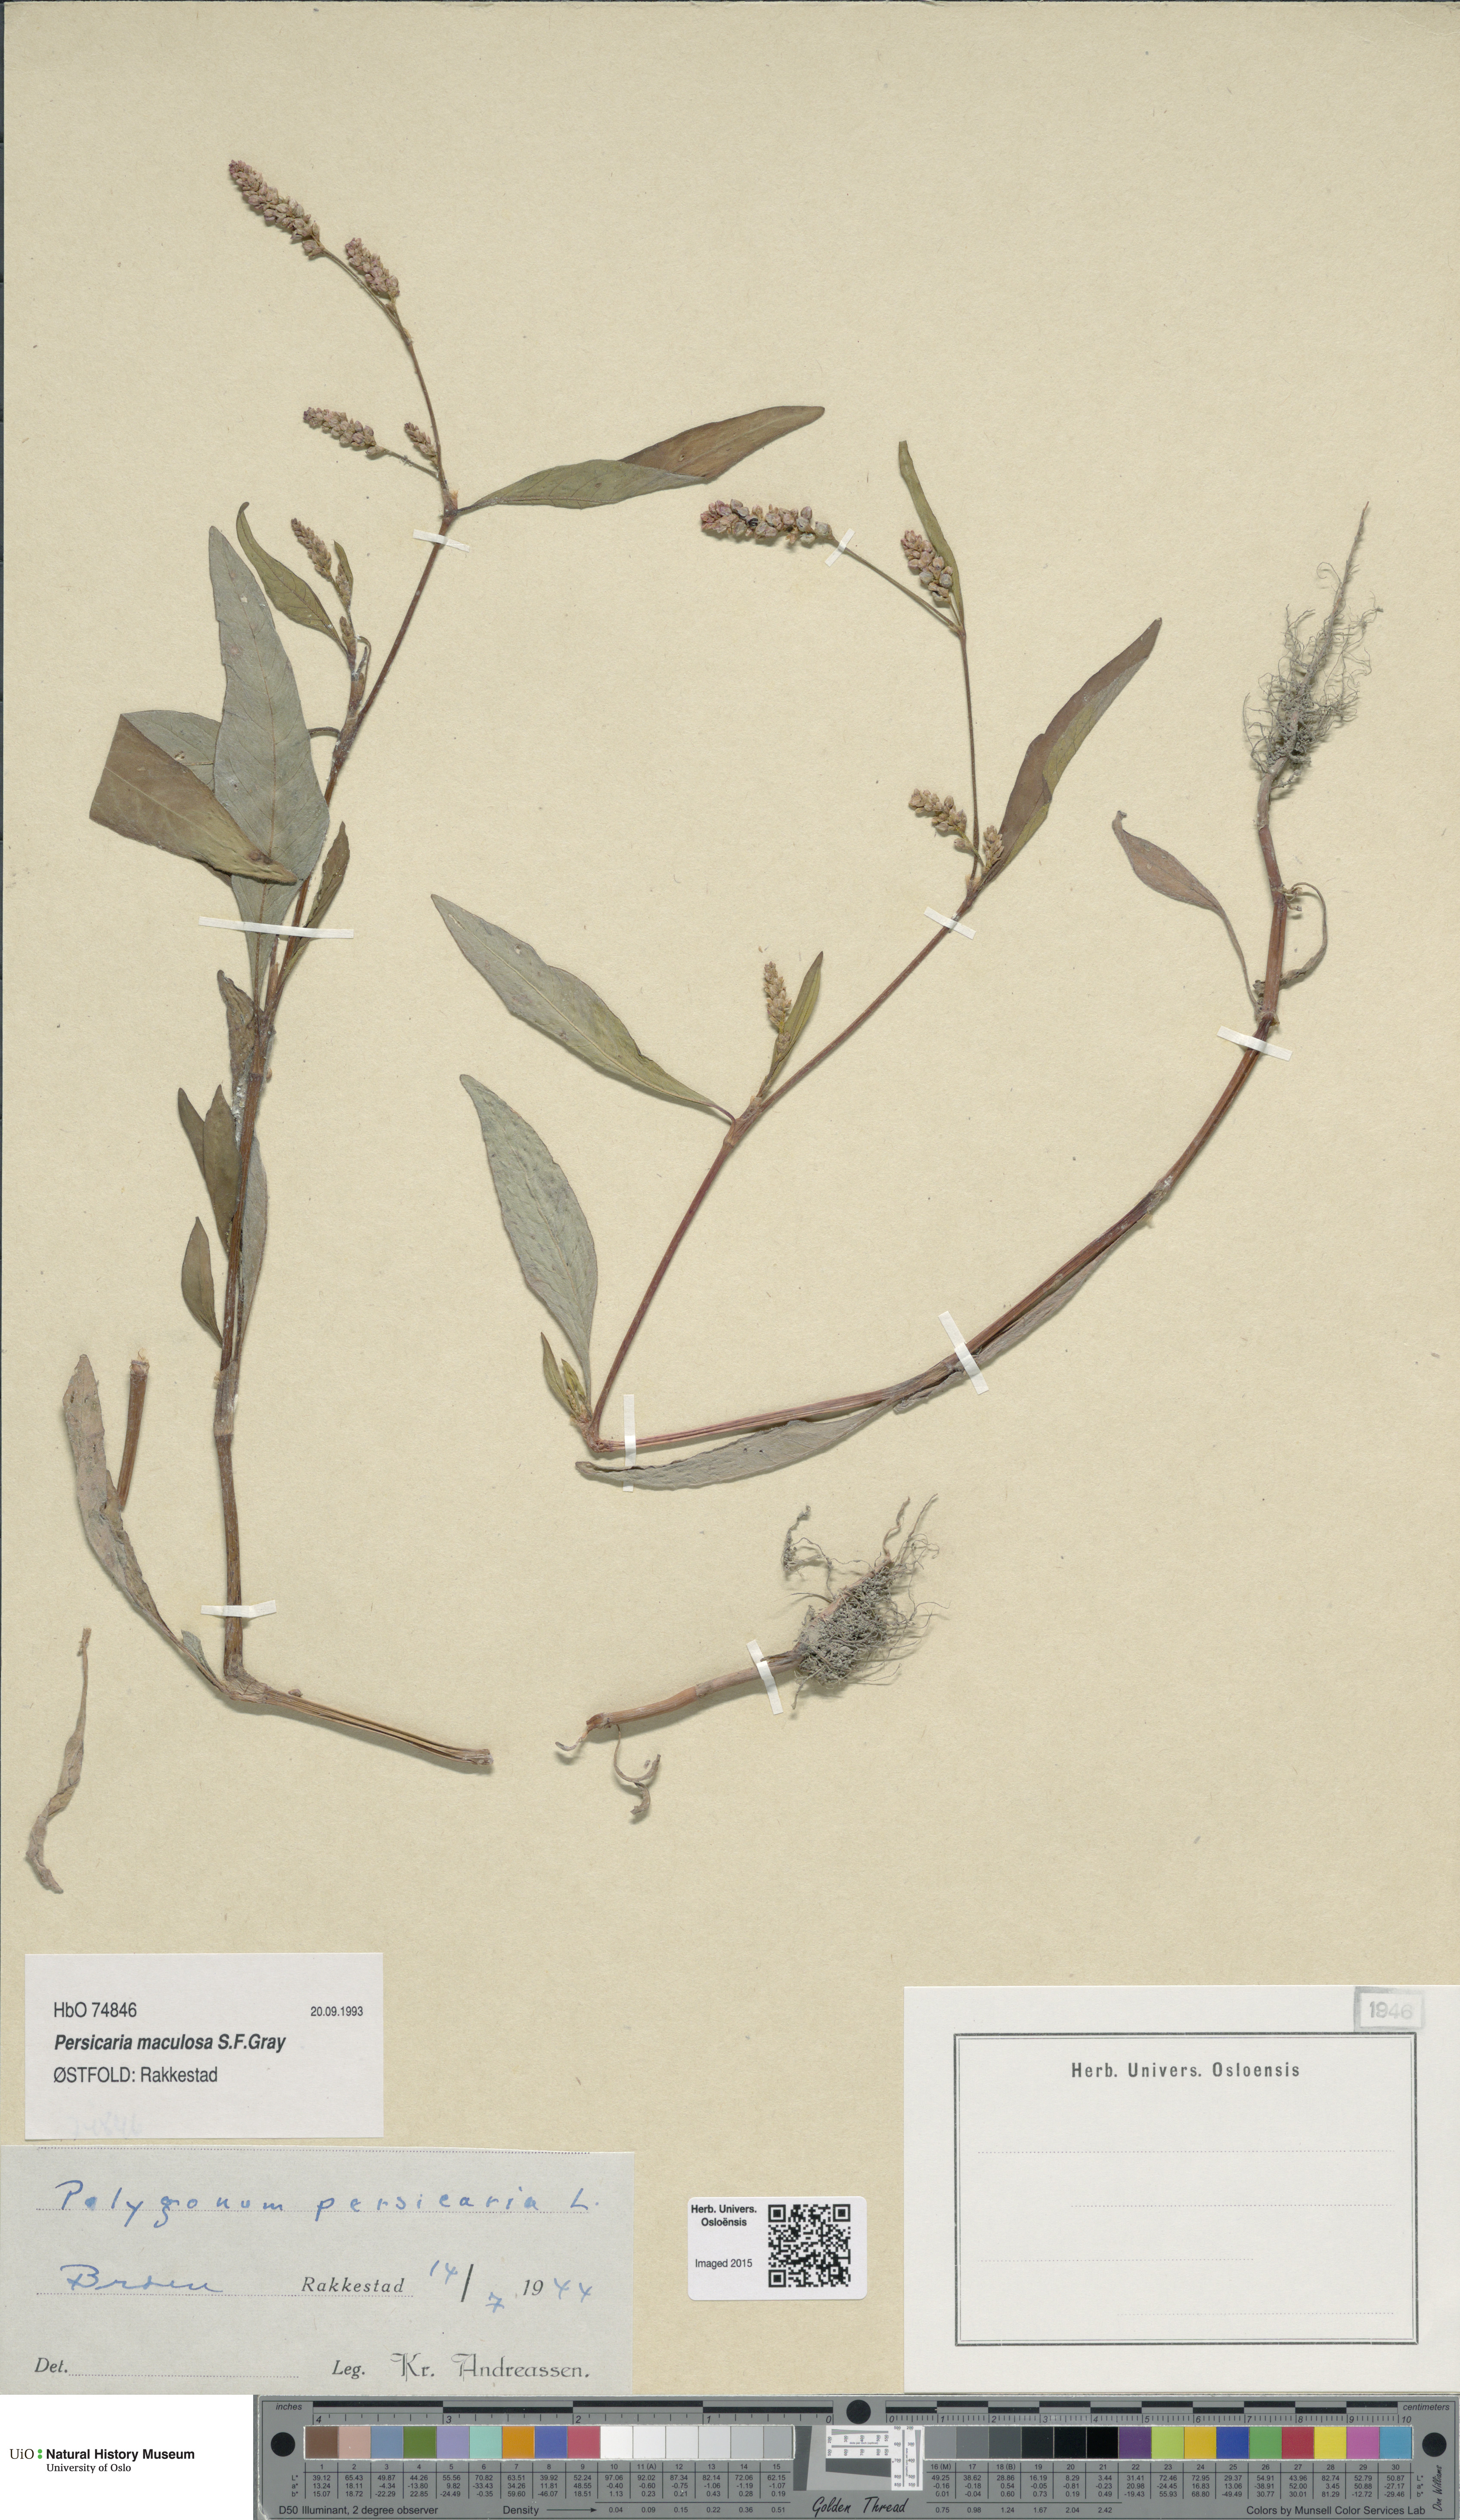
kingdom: Plantae
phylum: Tracheophyta
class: Magnoliopsida
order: Caryophyllales
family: Polygonaceae
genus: Persicaria
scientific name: Persicaria maculosa
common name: Redshank
